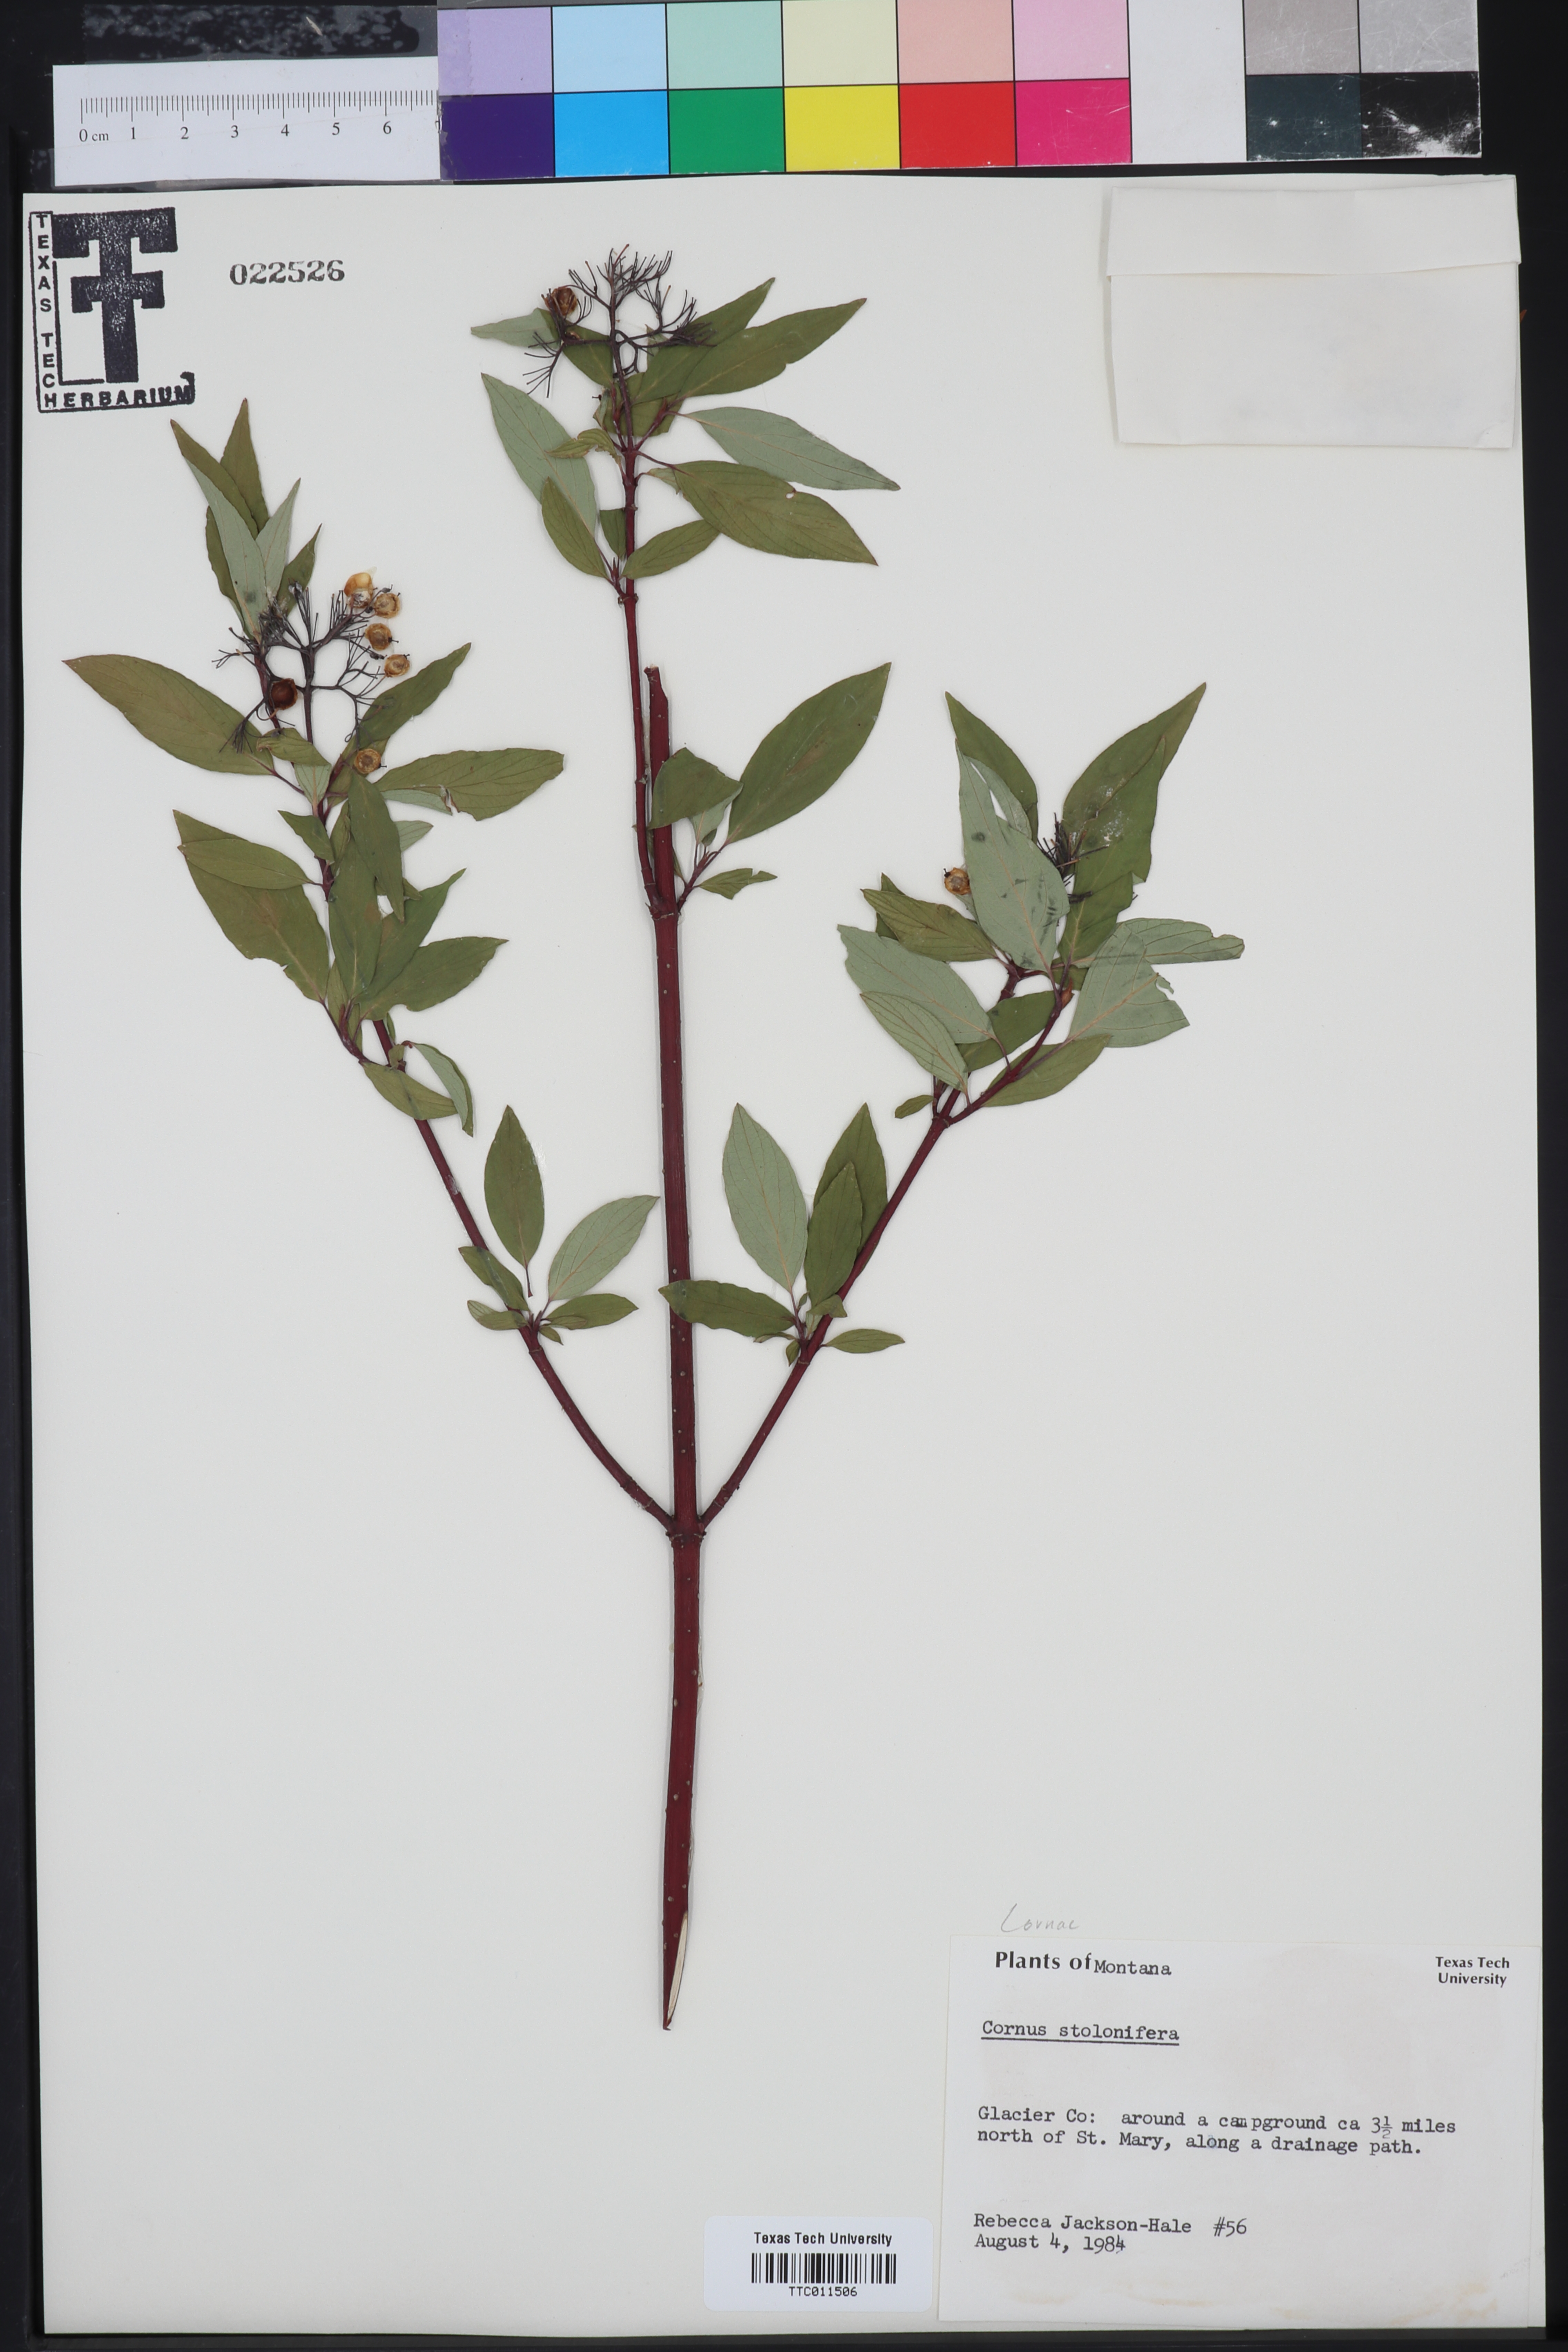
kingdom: Plantae
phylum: Tracheophyta
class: Magnoliopsida
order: Cornales
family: Cornaceae
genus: Cornus
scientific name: Cornus sericea
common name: Red-osier dogwood
